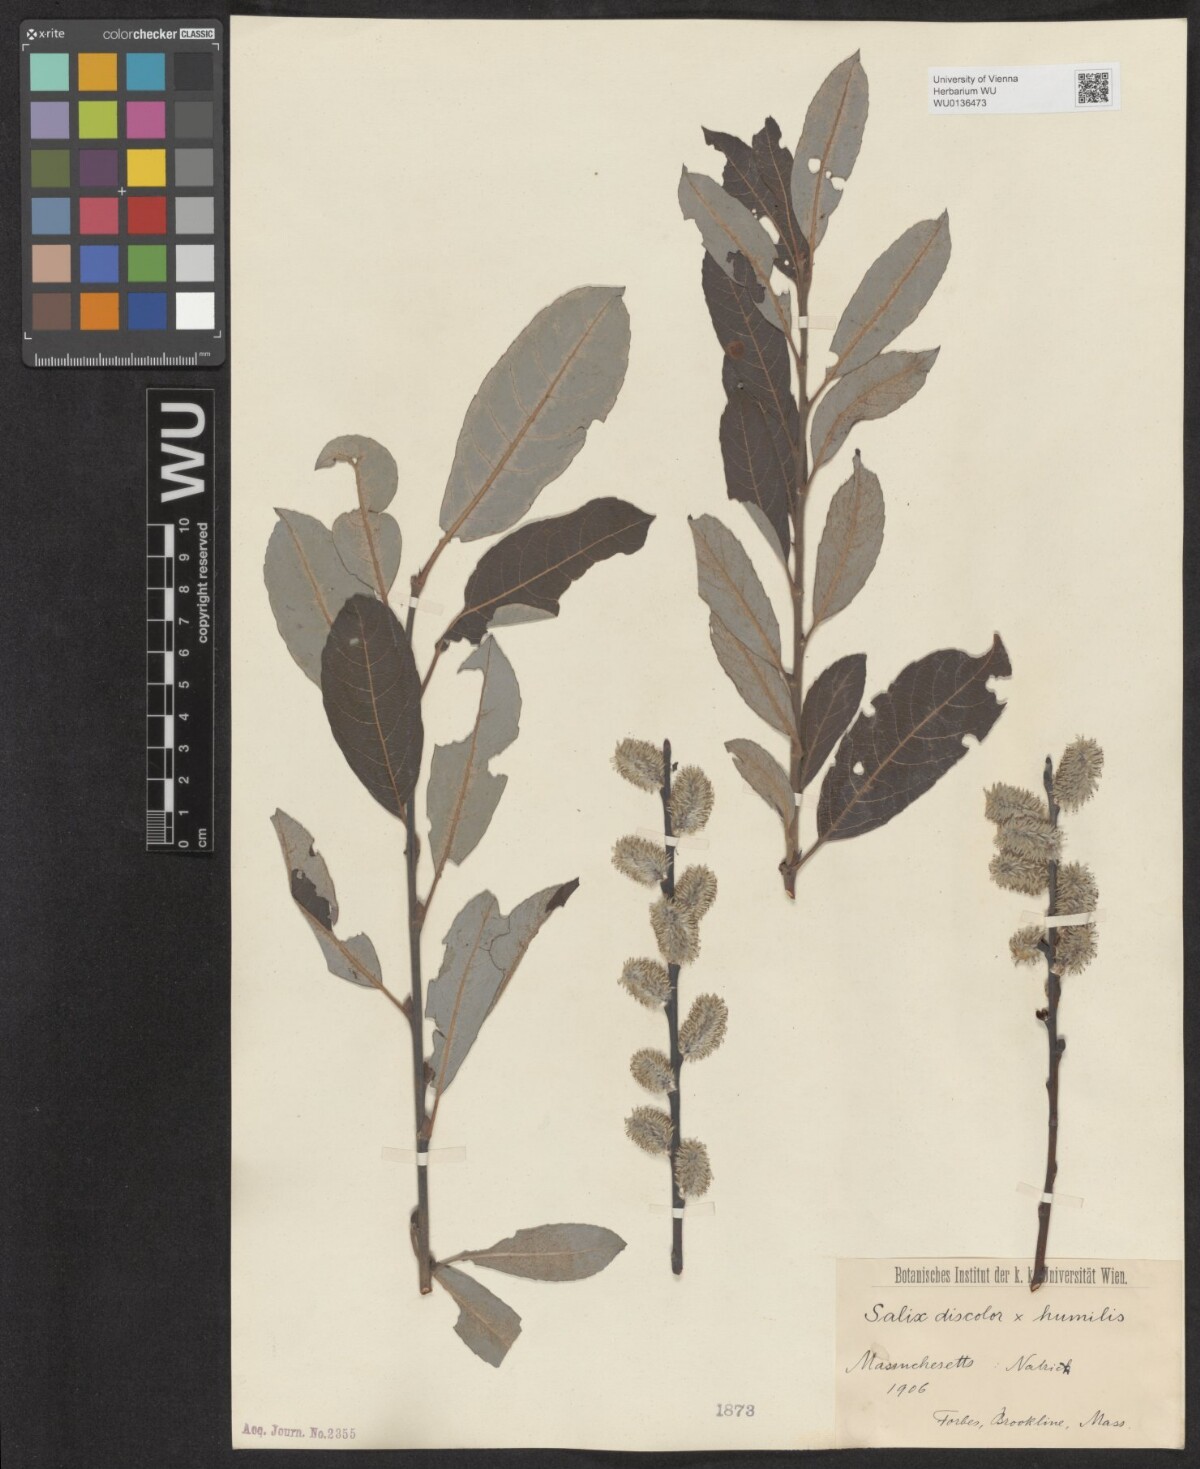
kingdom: Plantae
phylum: Tracheophyta
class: Magnoliopsida
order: Malpighiales
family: Salicaceae
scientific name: Salicaceae
